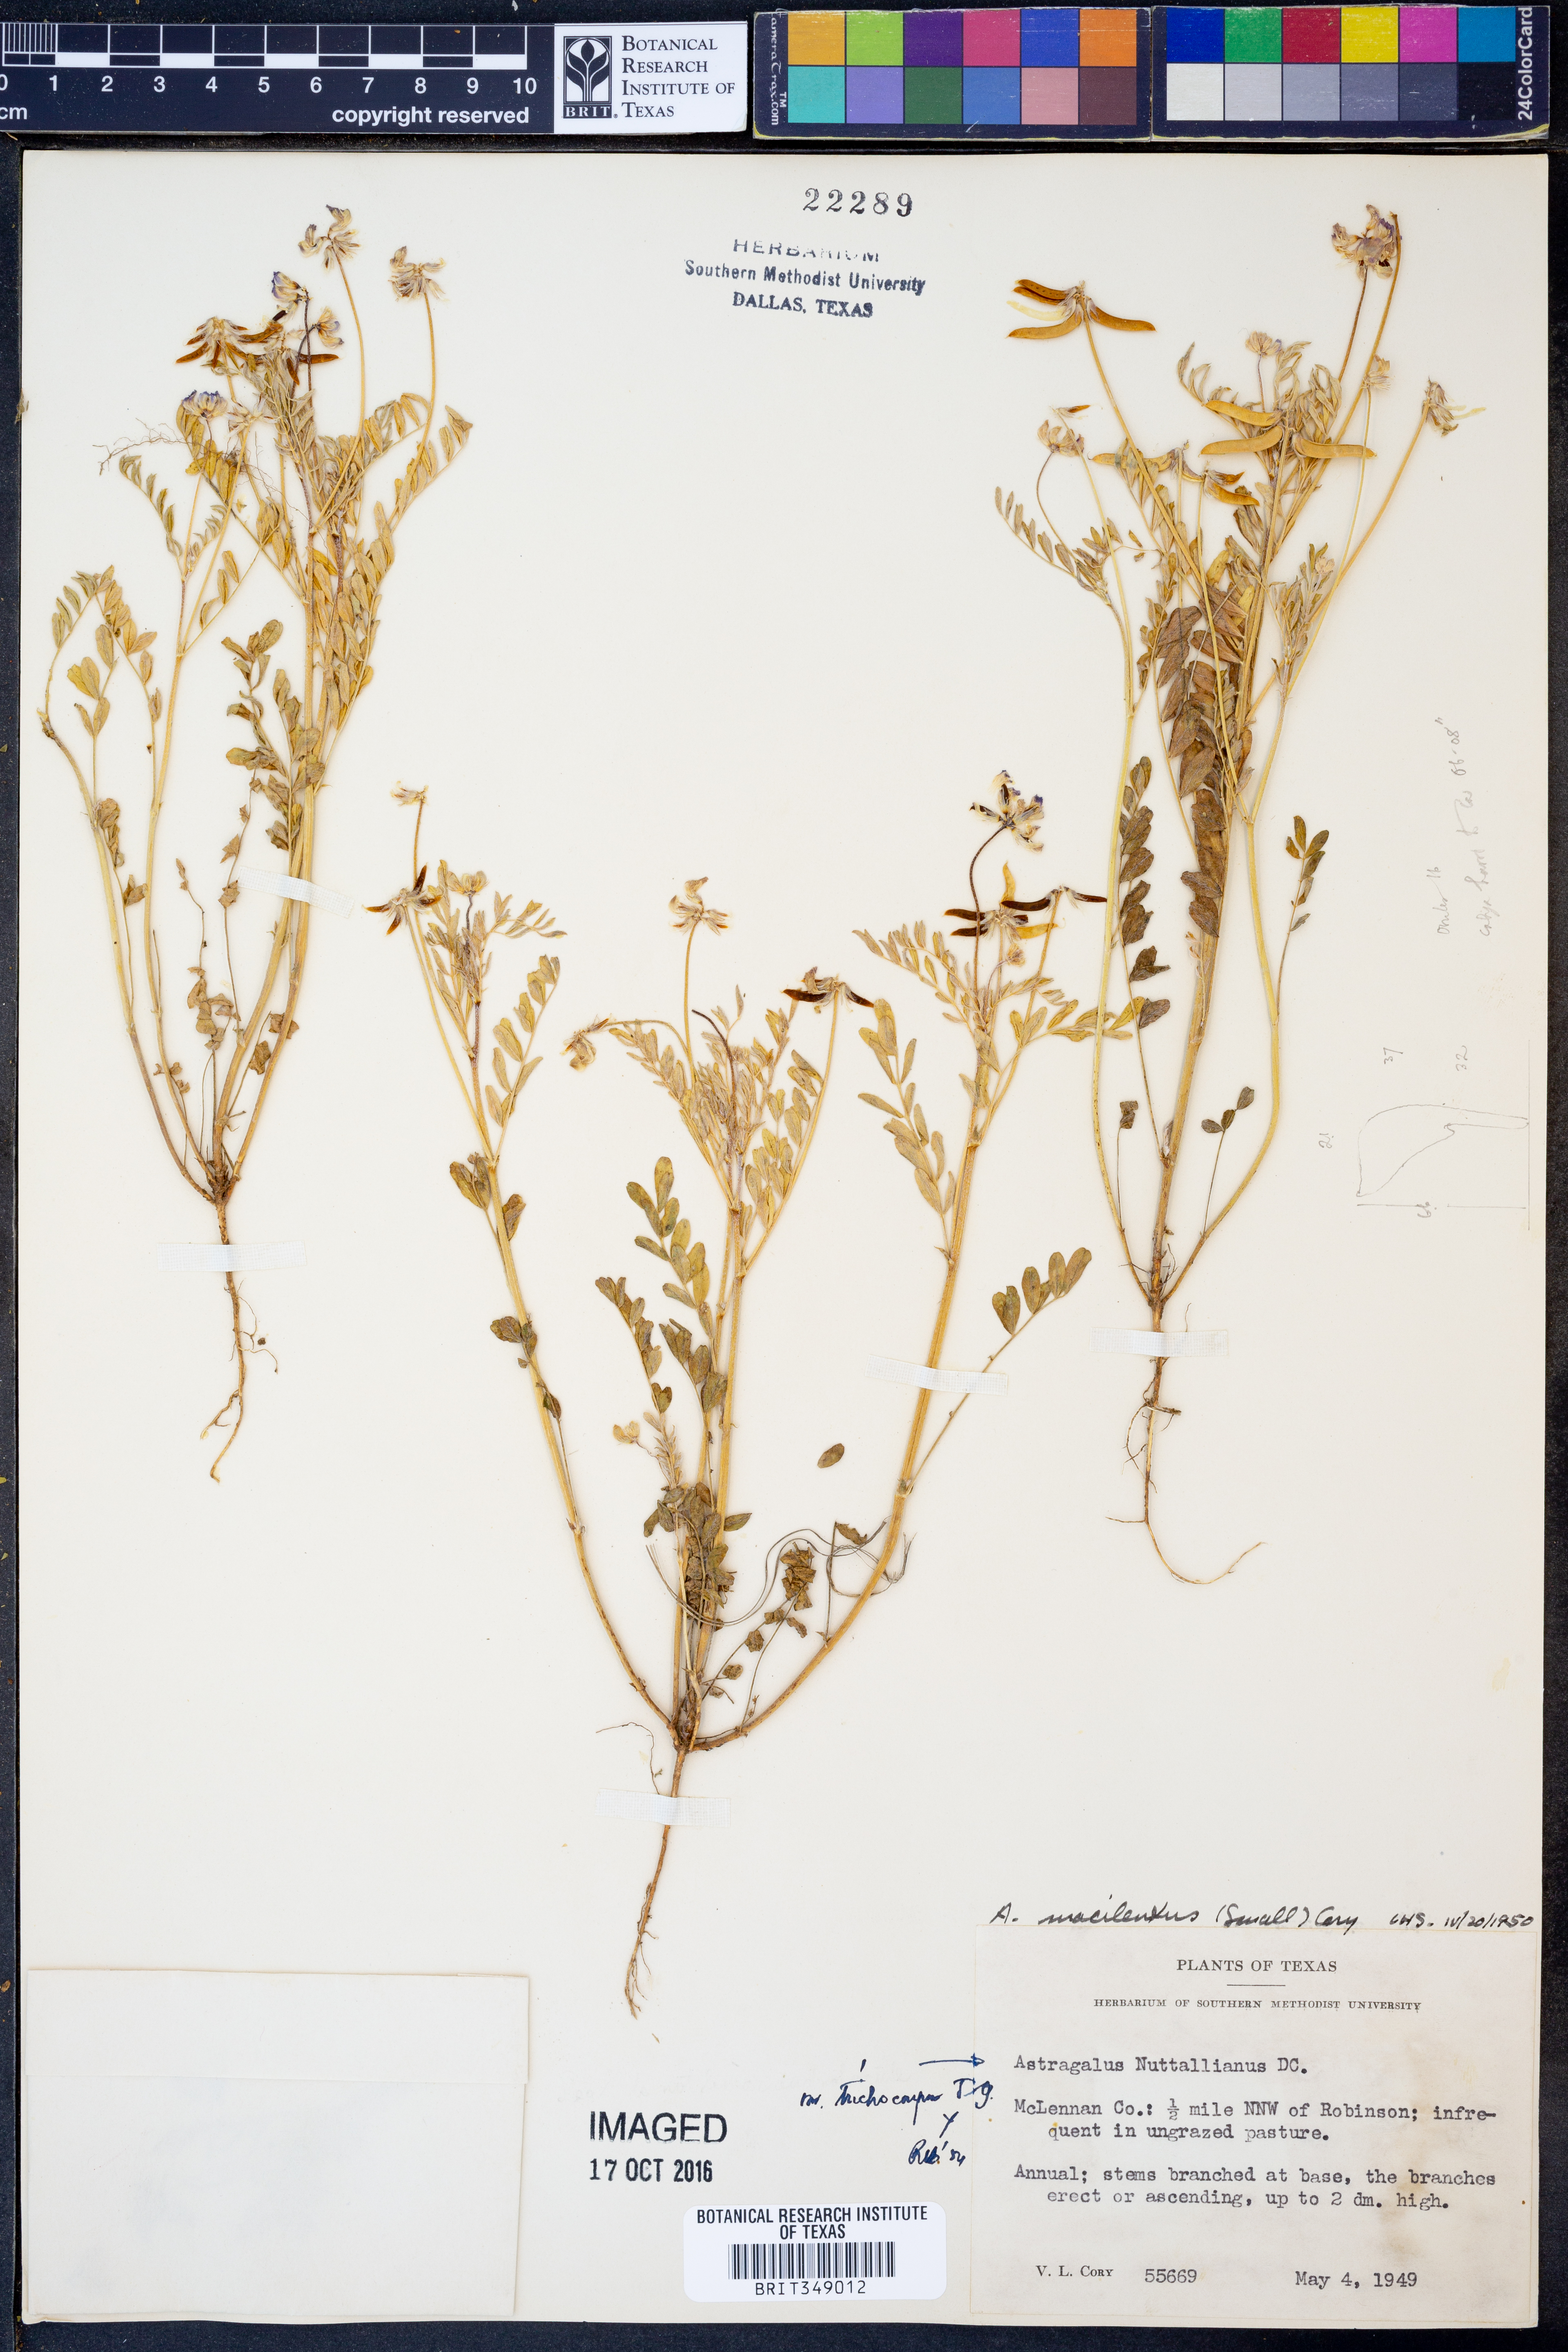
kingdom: Plantae
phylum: Tracheophyta
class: Magnoliopsida
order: Fabales
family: Fabaceae
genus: Astragalus
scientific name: Astragalus nuttallianus
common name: Smallflowered milkvetch
